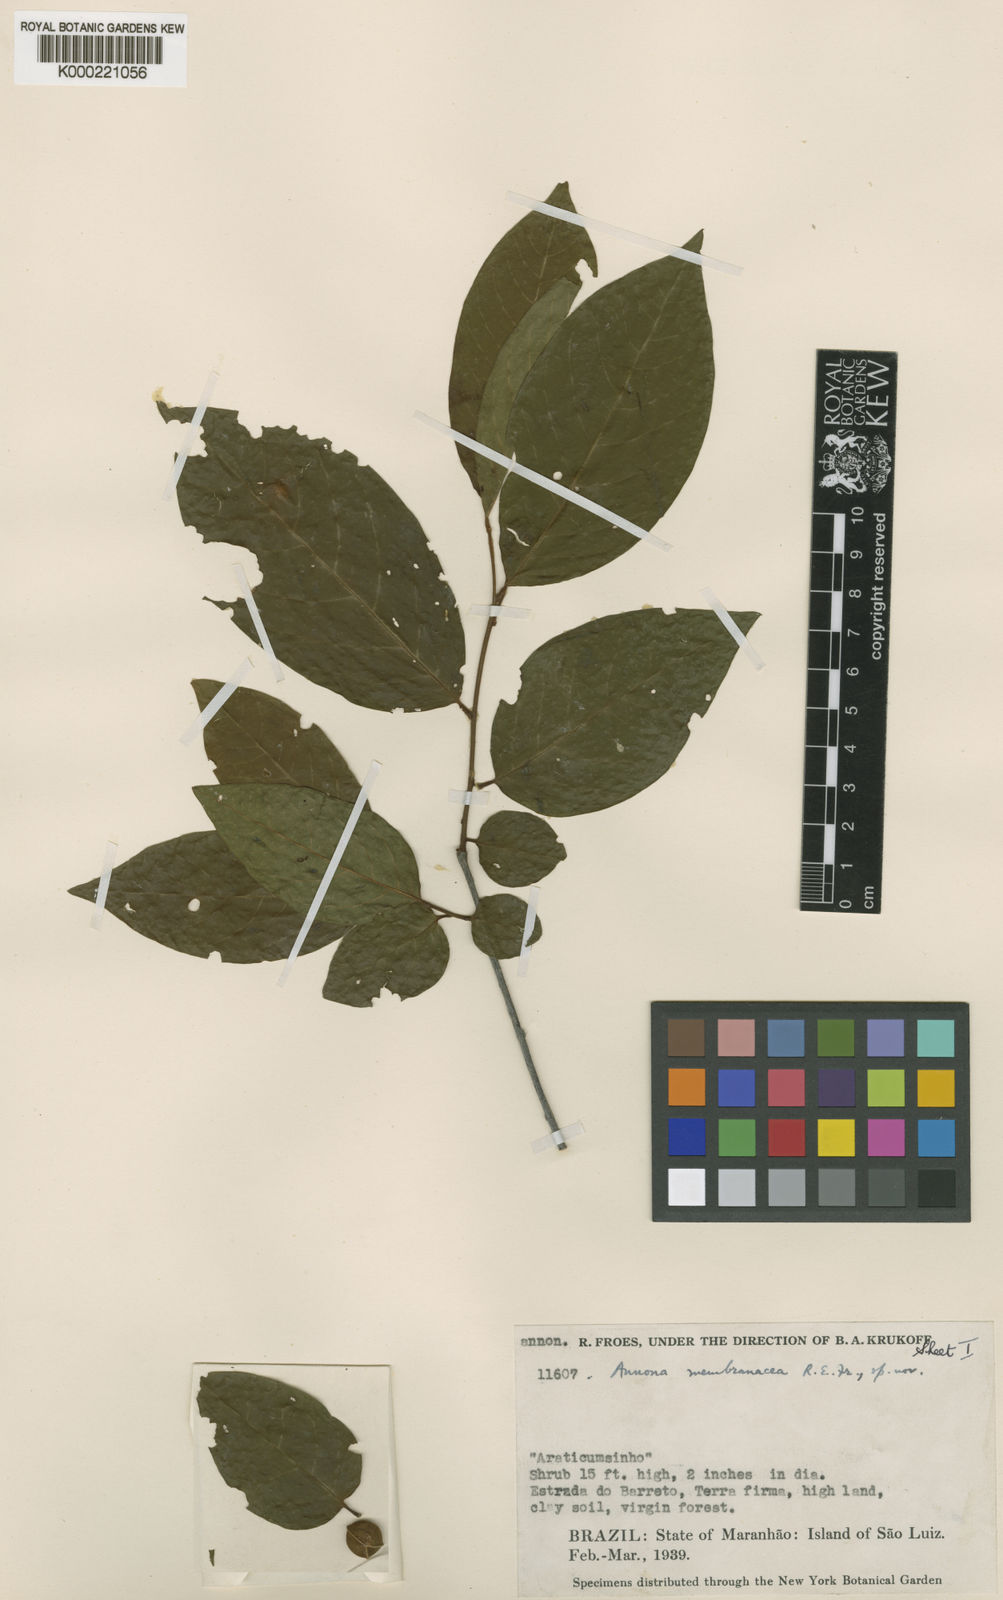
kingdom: Plantae
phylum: Tracheophyta
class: Magnoliopsida
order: Magnoliales
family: Annonaceae
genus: Annona
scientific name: Annona membranacea
